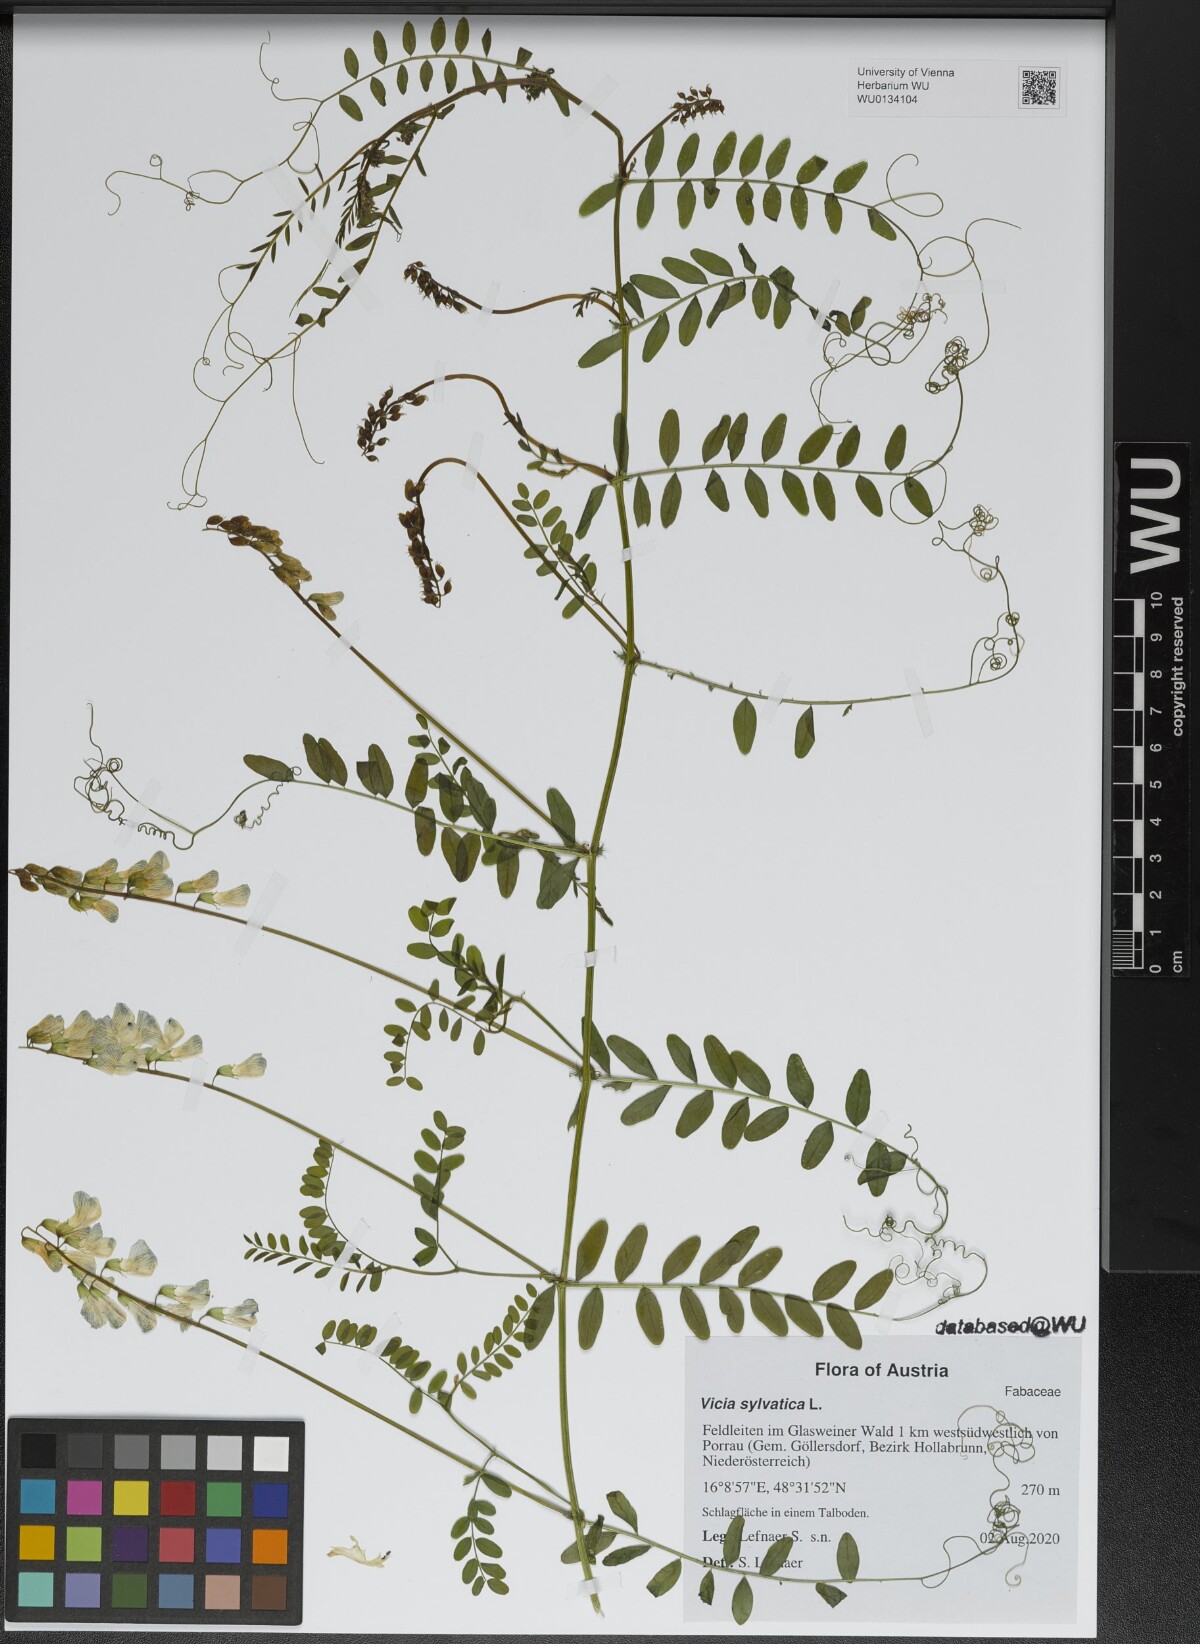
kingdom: Plantae
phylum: Tracheophyta
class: Magnoliopsida
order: Fabales
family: Fabaceae
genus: Vicia
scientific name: Vicia sylvatica
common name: Wood vetch
